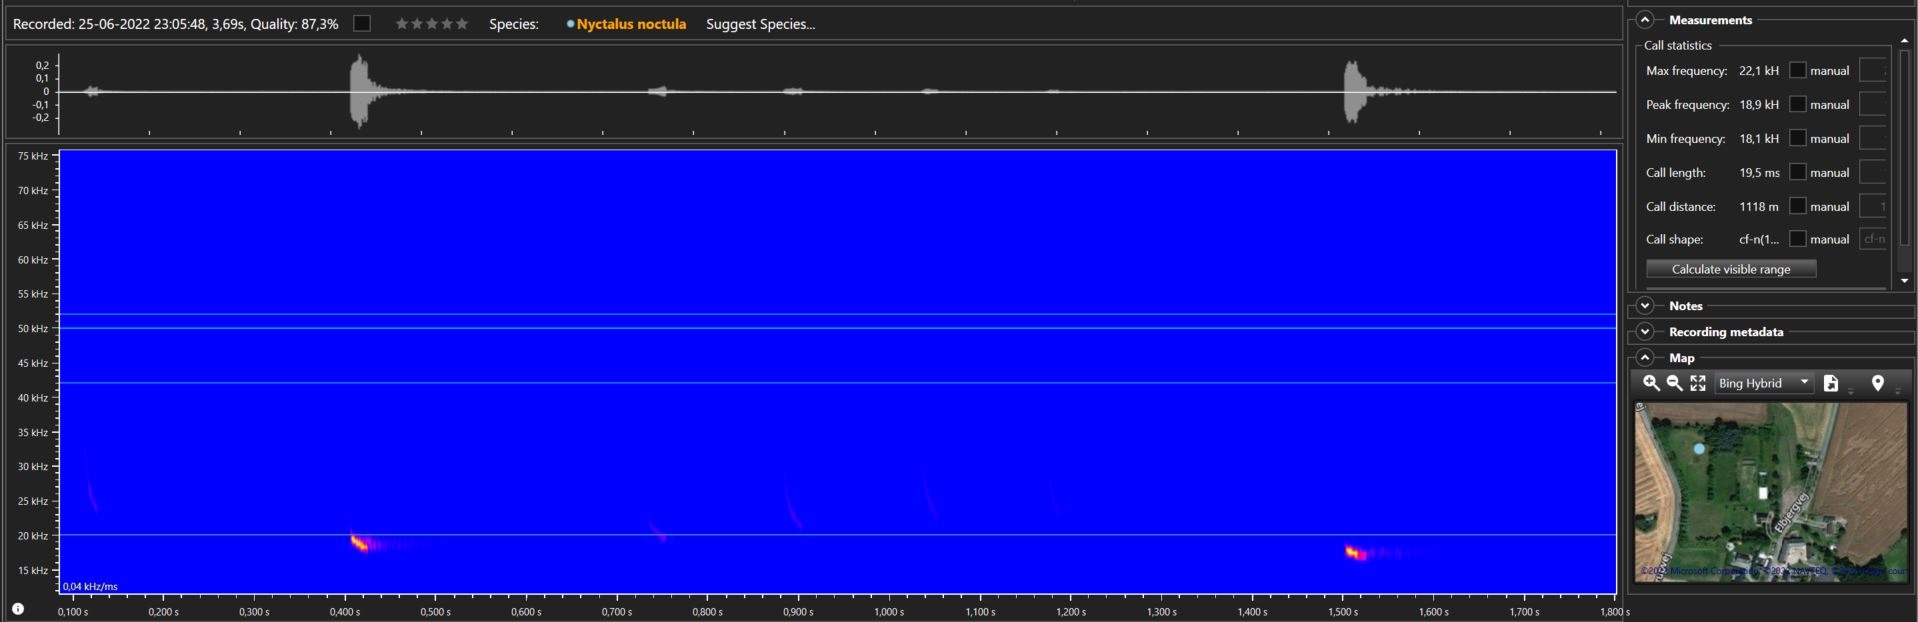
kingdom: Animalia
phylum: Chordata
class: Mammalia
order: Chiroptera
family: Vespertilionidae
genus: Nyctalus
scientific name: Nyctalus noctula
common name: Brunflagermus
